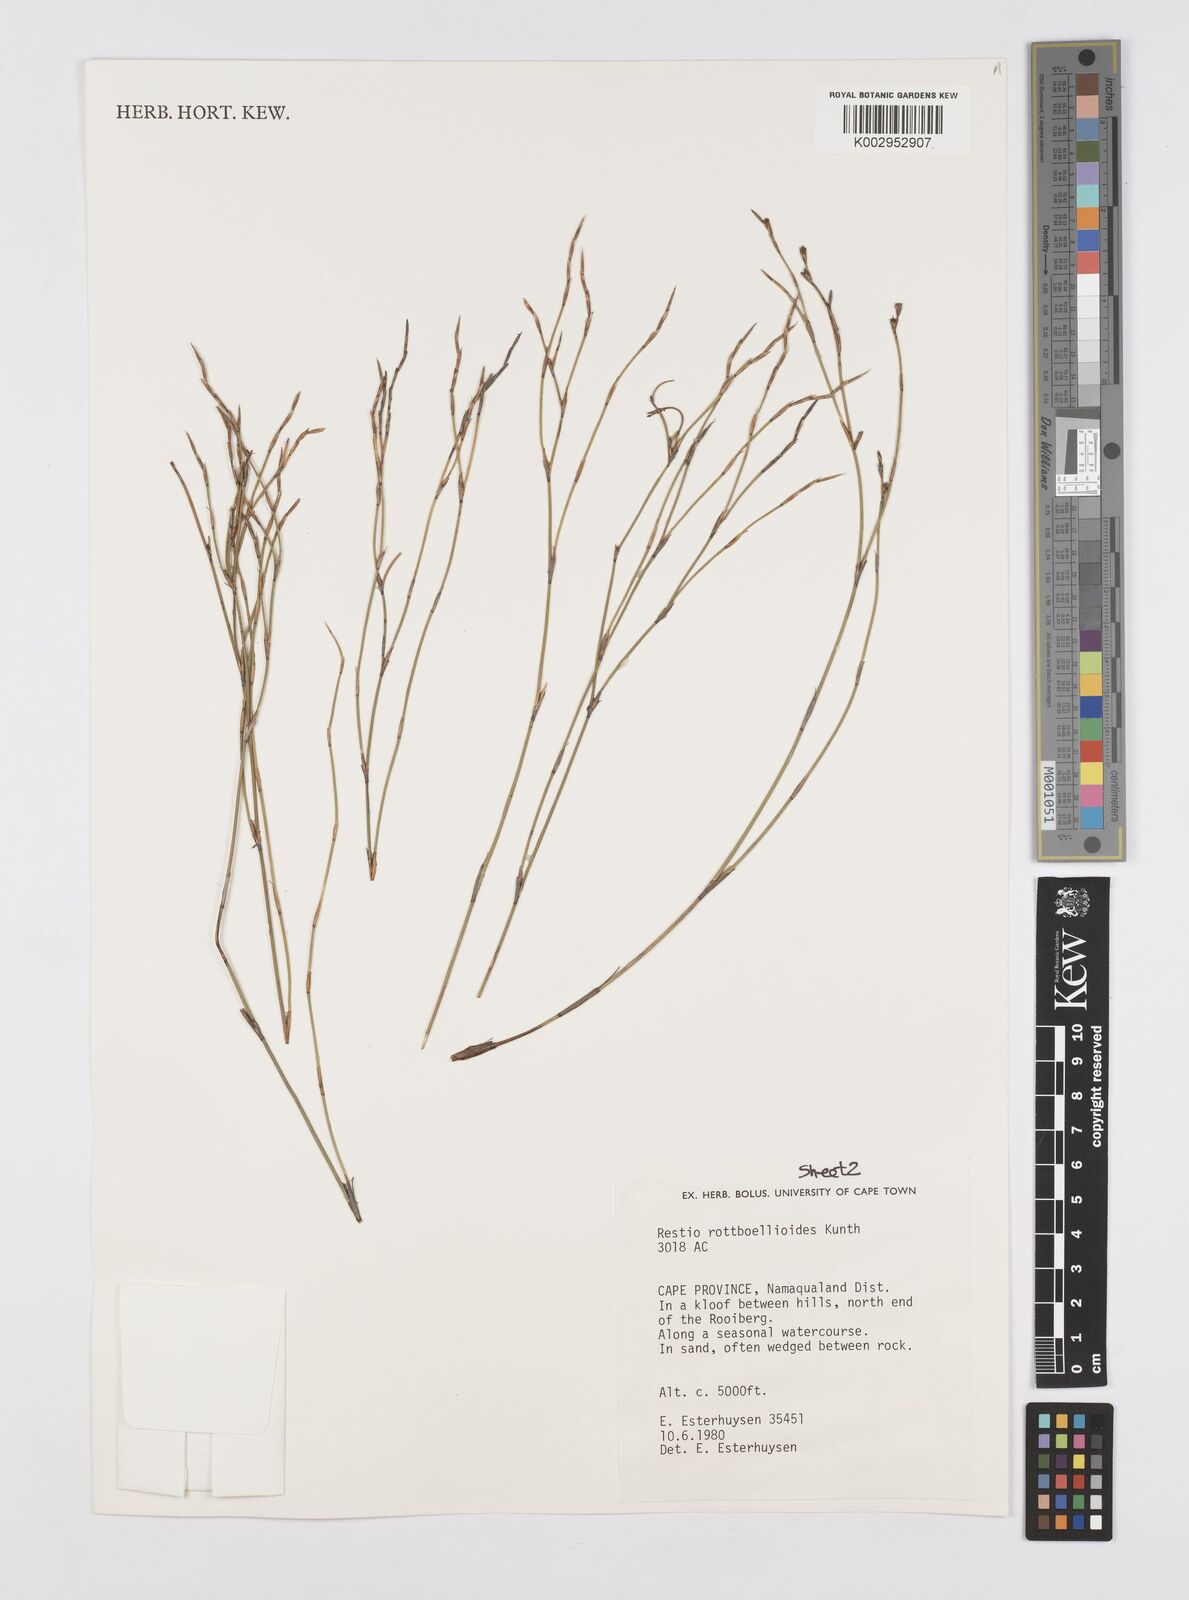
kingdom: Plantae
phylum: Tracheophyta
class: Liliopsida
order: Poales
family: Restionaceae
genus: Restio
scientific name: Restio rottboellioides
